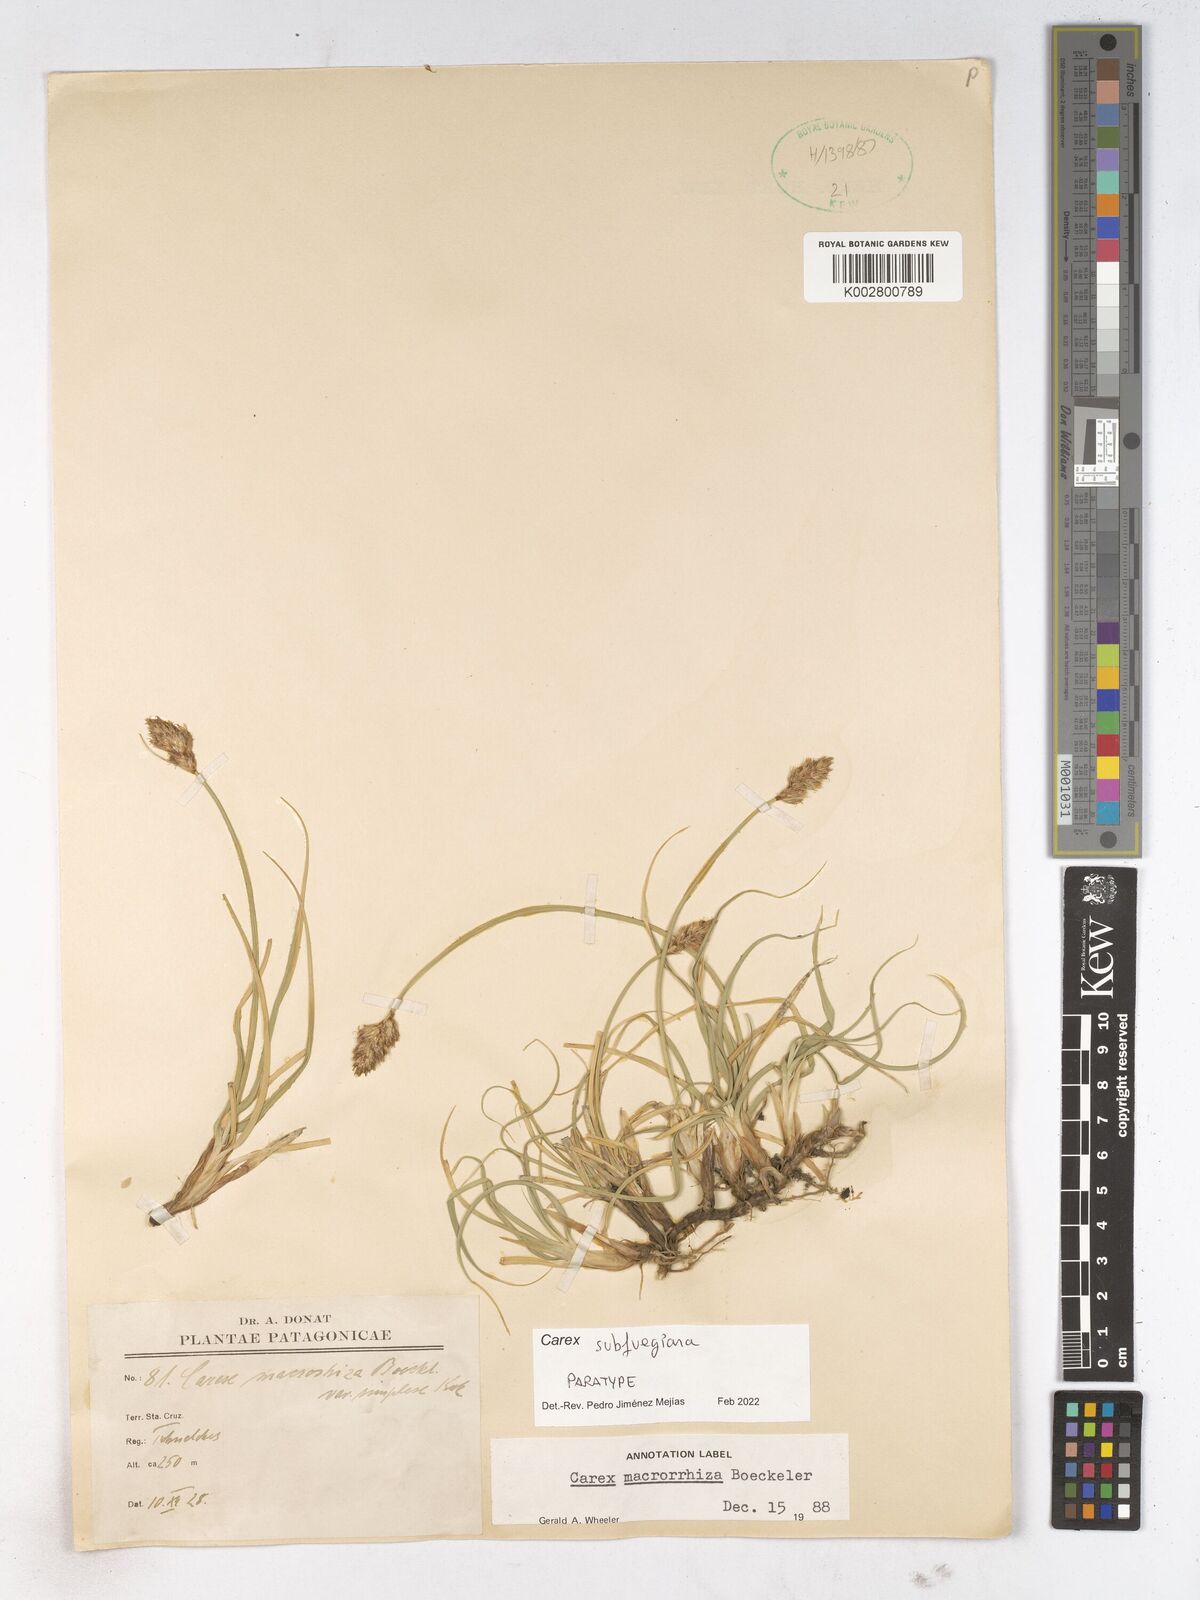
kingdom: Plantae
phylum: Tracheophyta
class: Liliopsida
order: Poales
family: Cyperaceae
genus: Carex
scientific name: Carex
